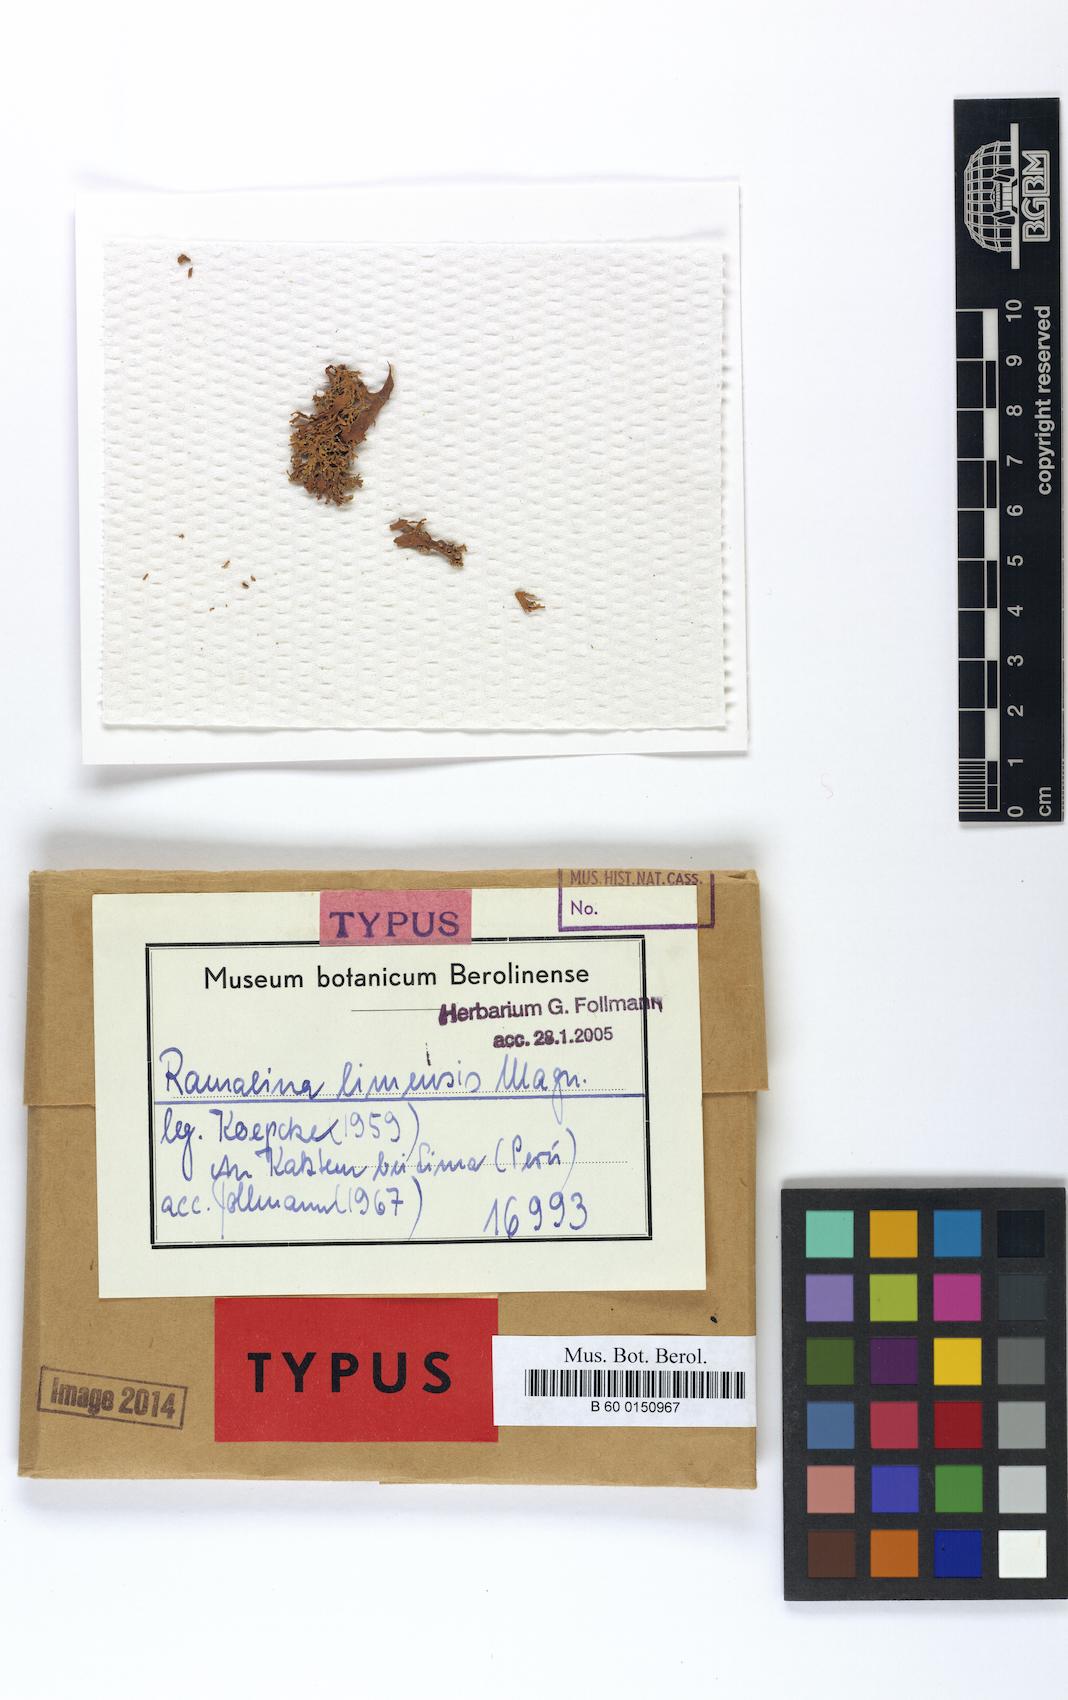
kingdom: Fungi
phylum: Ascomycota
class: Lecanoromycetes
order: Lecanorales
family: Ramalinaceae
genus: Ramalina
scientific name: Ramalina
